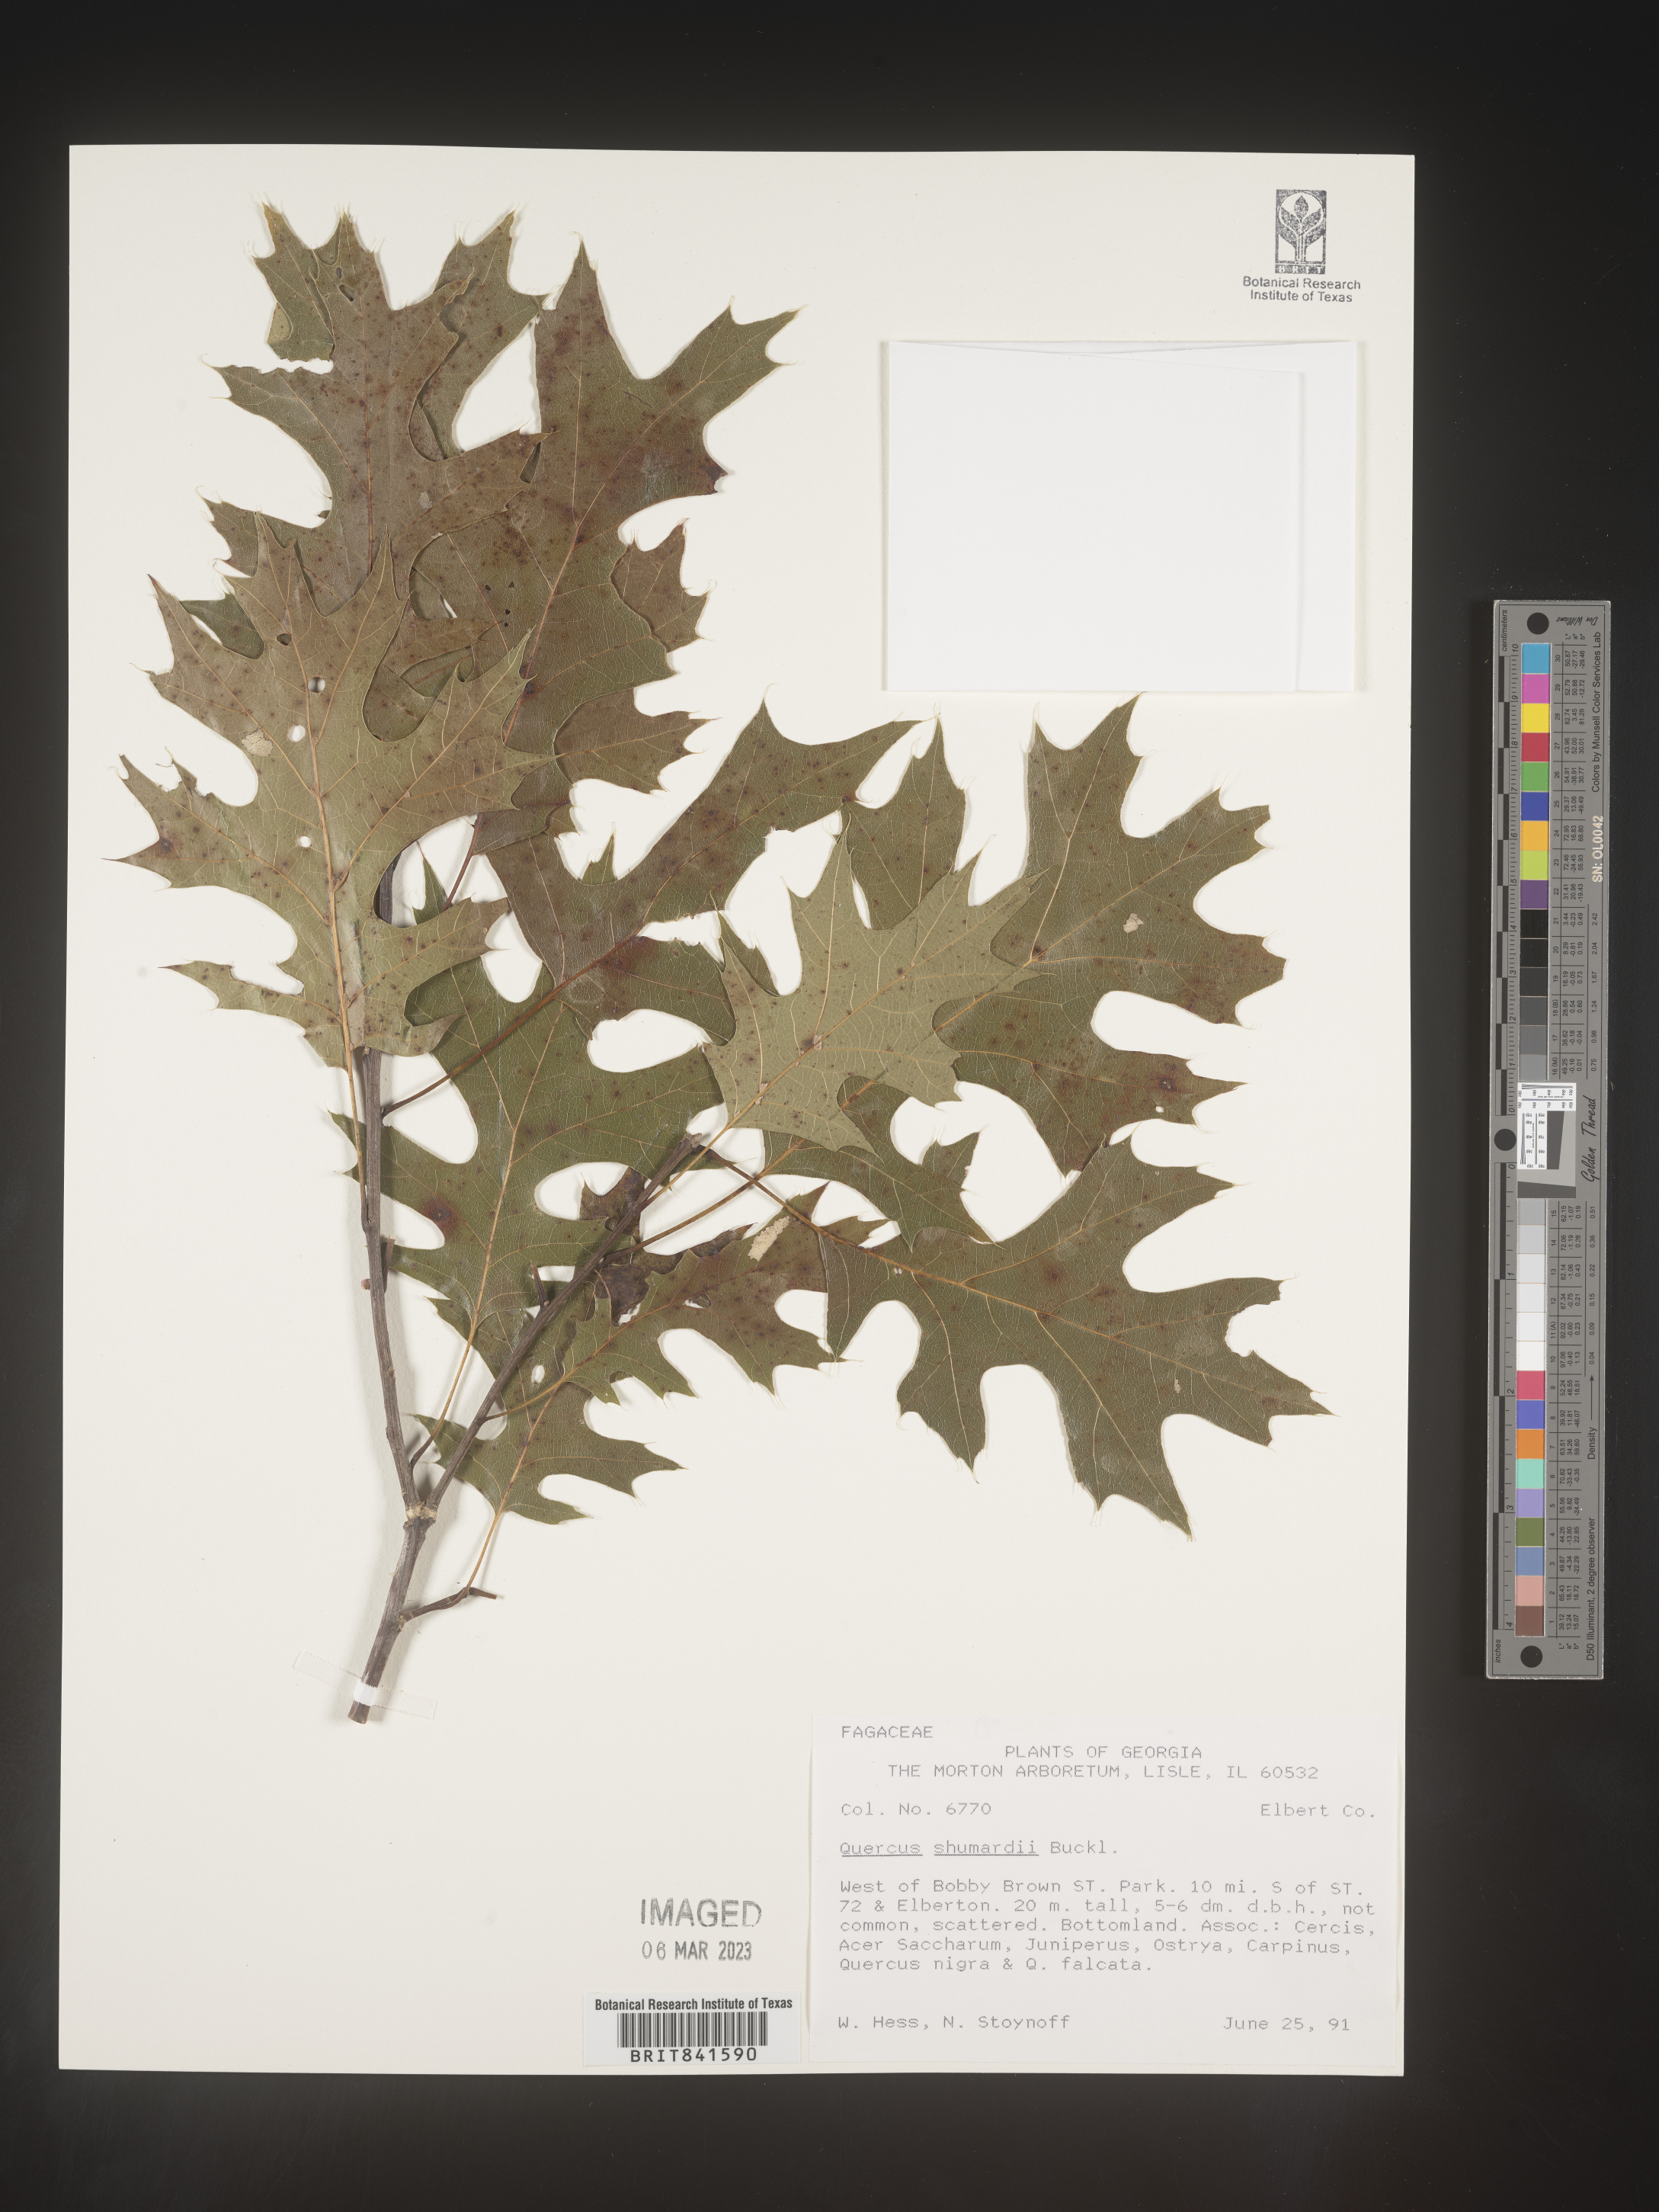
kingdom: Plantae
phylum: Tracheophyta
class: Magnoliopsida
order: Fagales
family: Fagaceae
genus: Quercus
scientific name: Quercus shumardii
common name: Shumard oak
